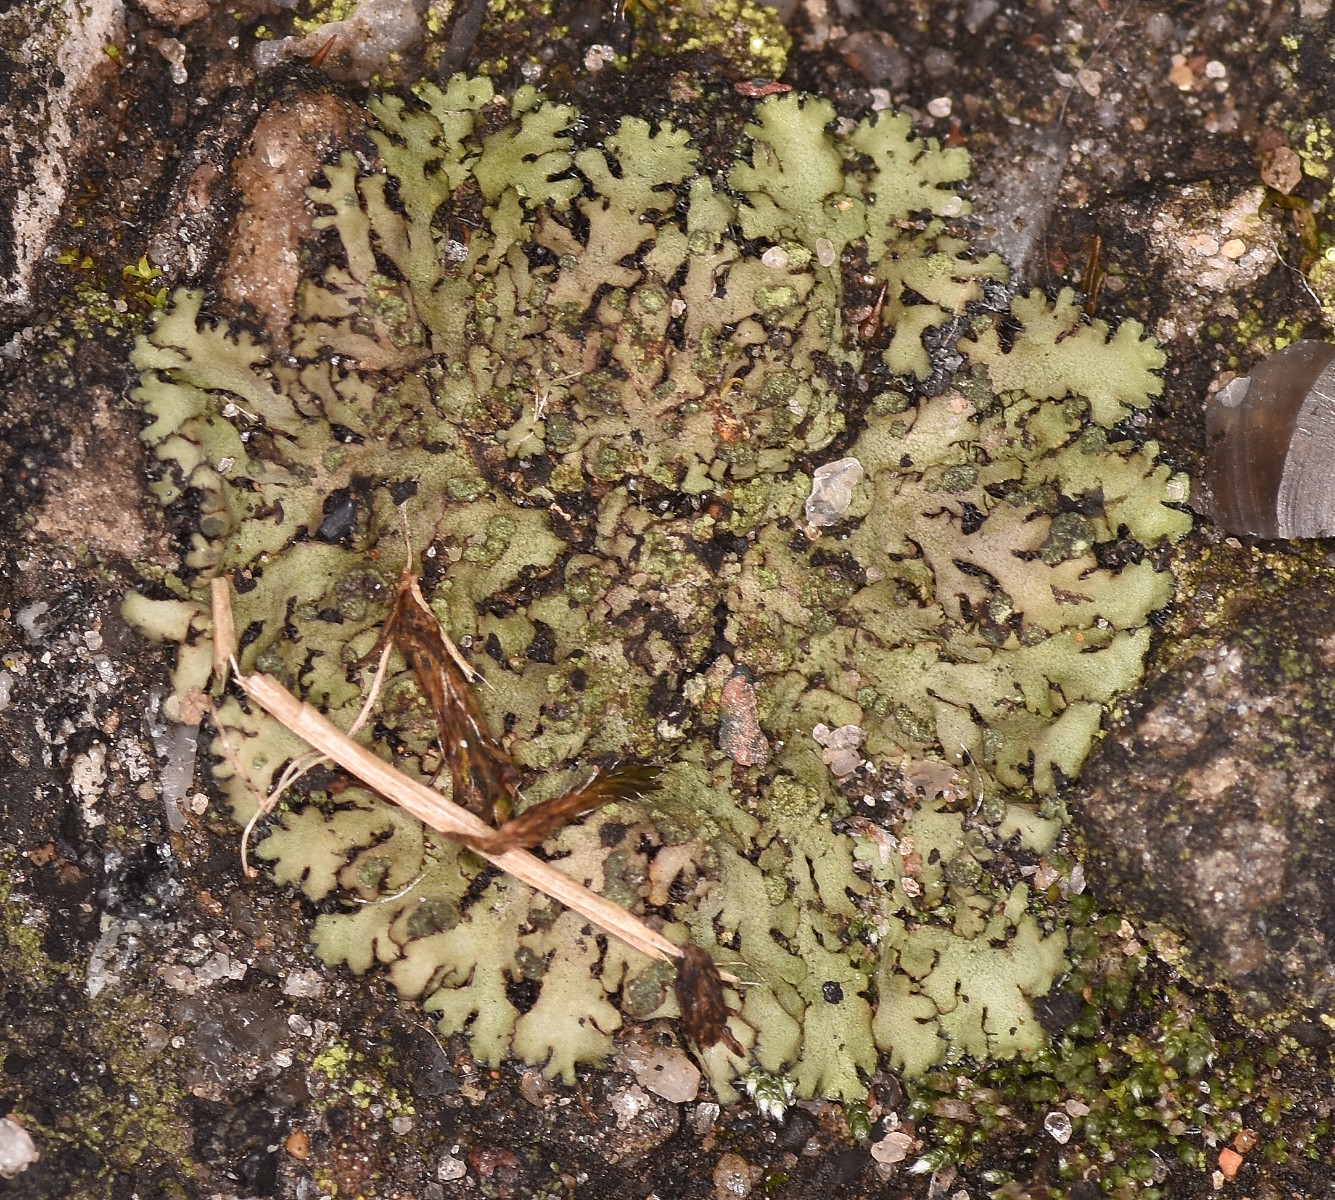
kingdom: Fungi
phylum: Ascomycota
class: Lecanoromycetes
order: Caliciales
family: Physciaceae
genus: Phaeophyscia
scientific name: Phaeophyscia orbicularis
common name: grågrøn rosetlav
